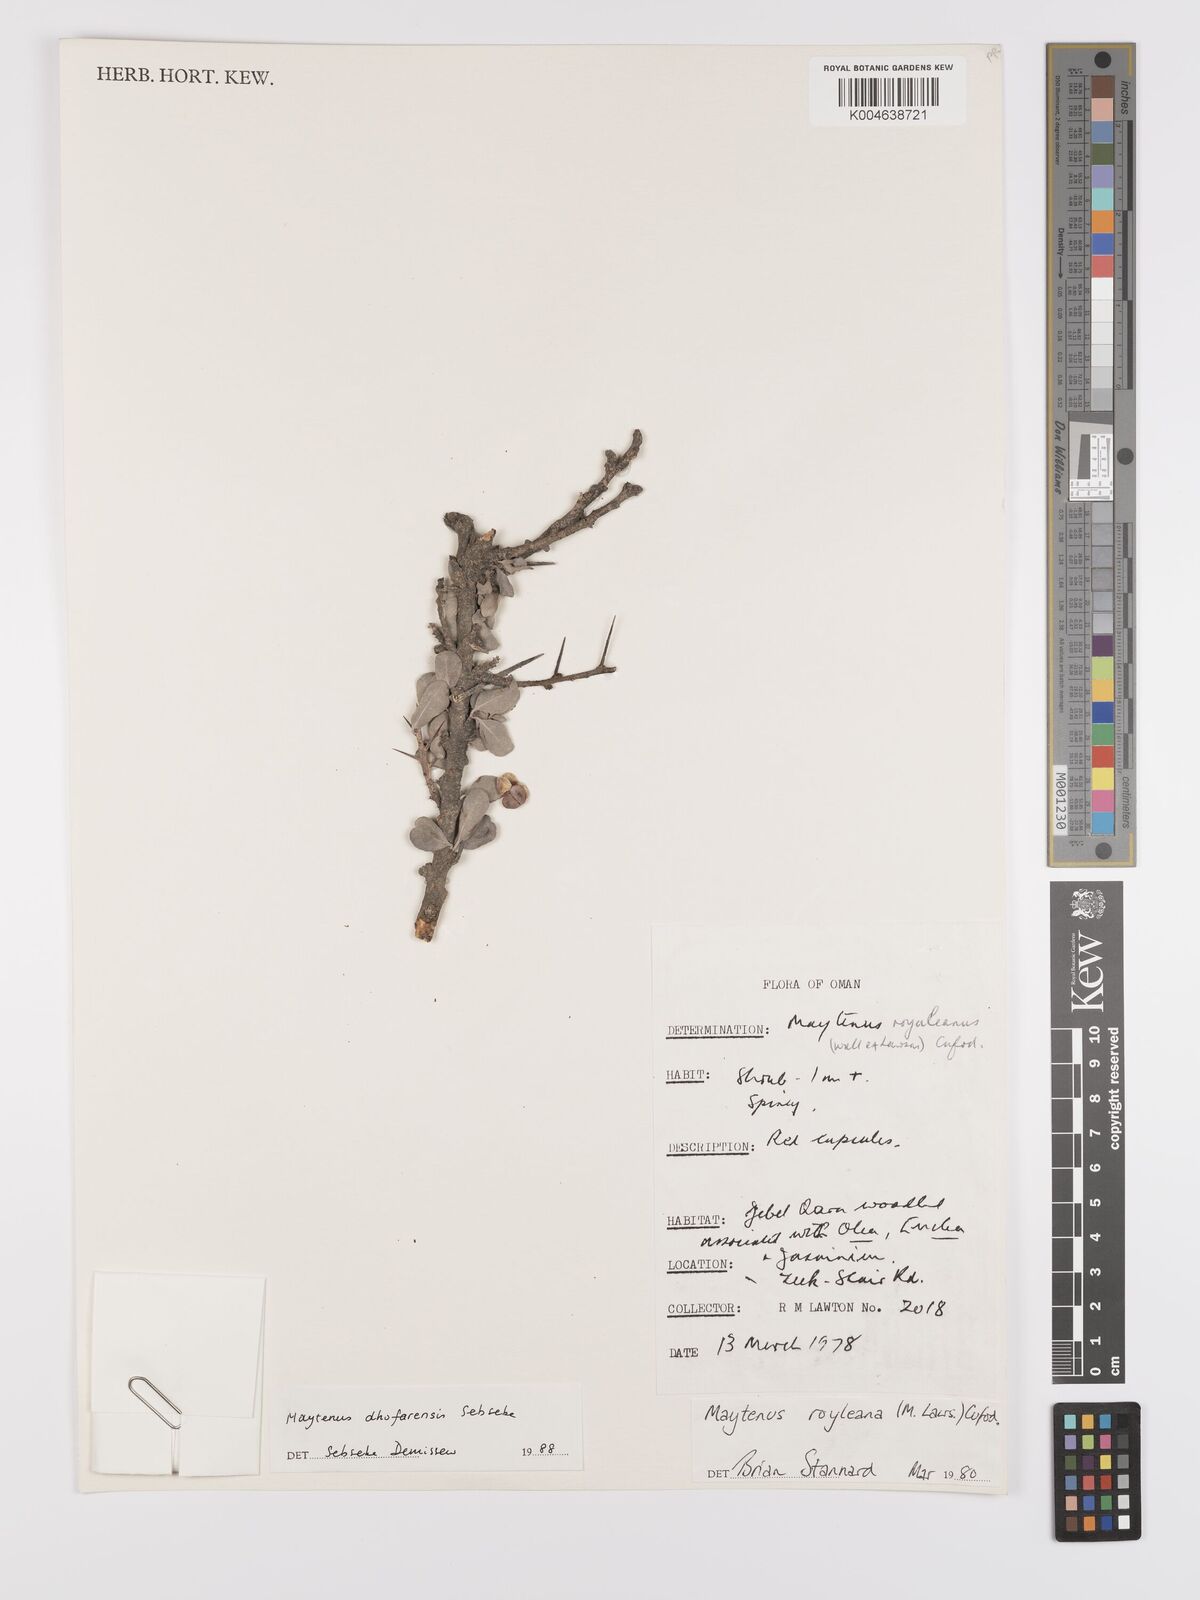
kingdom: Plantae
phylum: Tracheophyta
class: Magnoliopsida
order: Celastrales
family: Celastraceae
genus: Gymnosporia
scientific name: Gymnosporia dhofarensis
